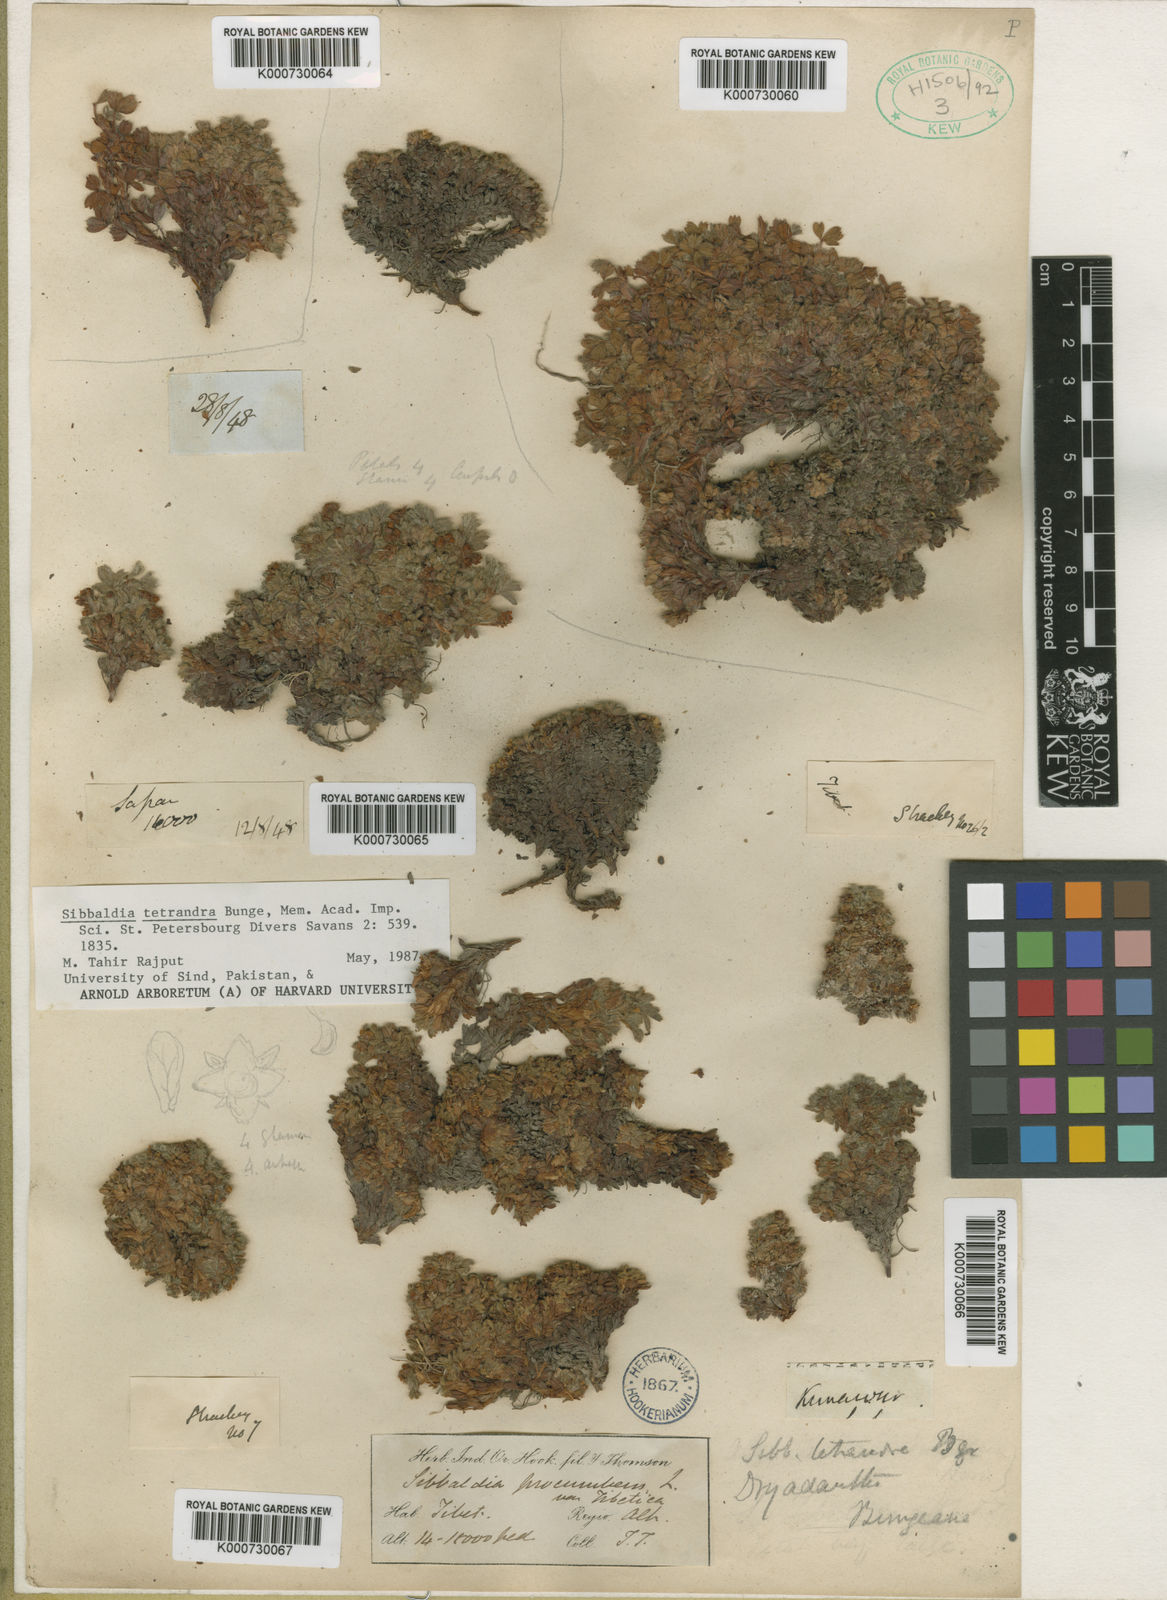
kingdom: Plantae
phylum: Tracheophyta
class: Magnoliopsida
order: Rosales
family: Rosaceae
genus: Potentilla
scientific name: Potentilla tetrandra
